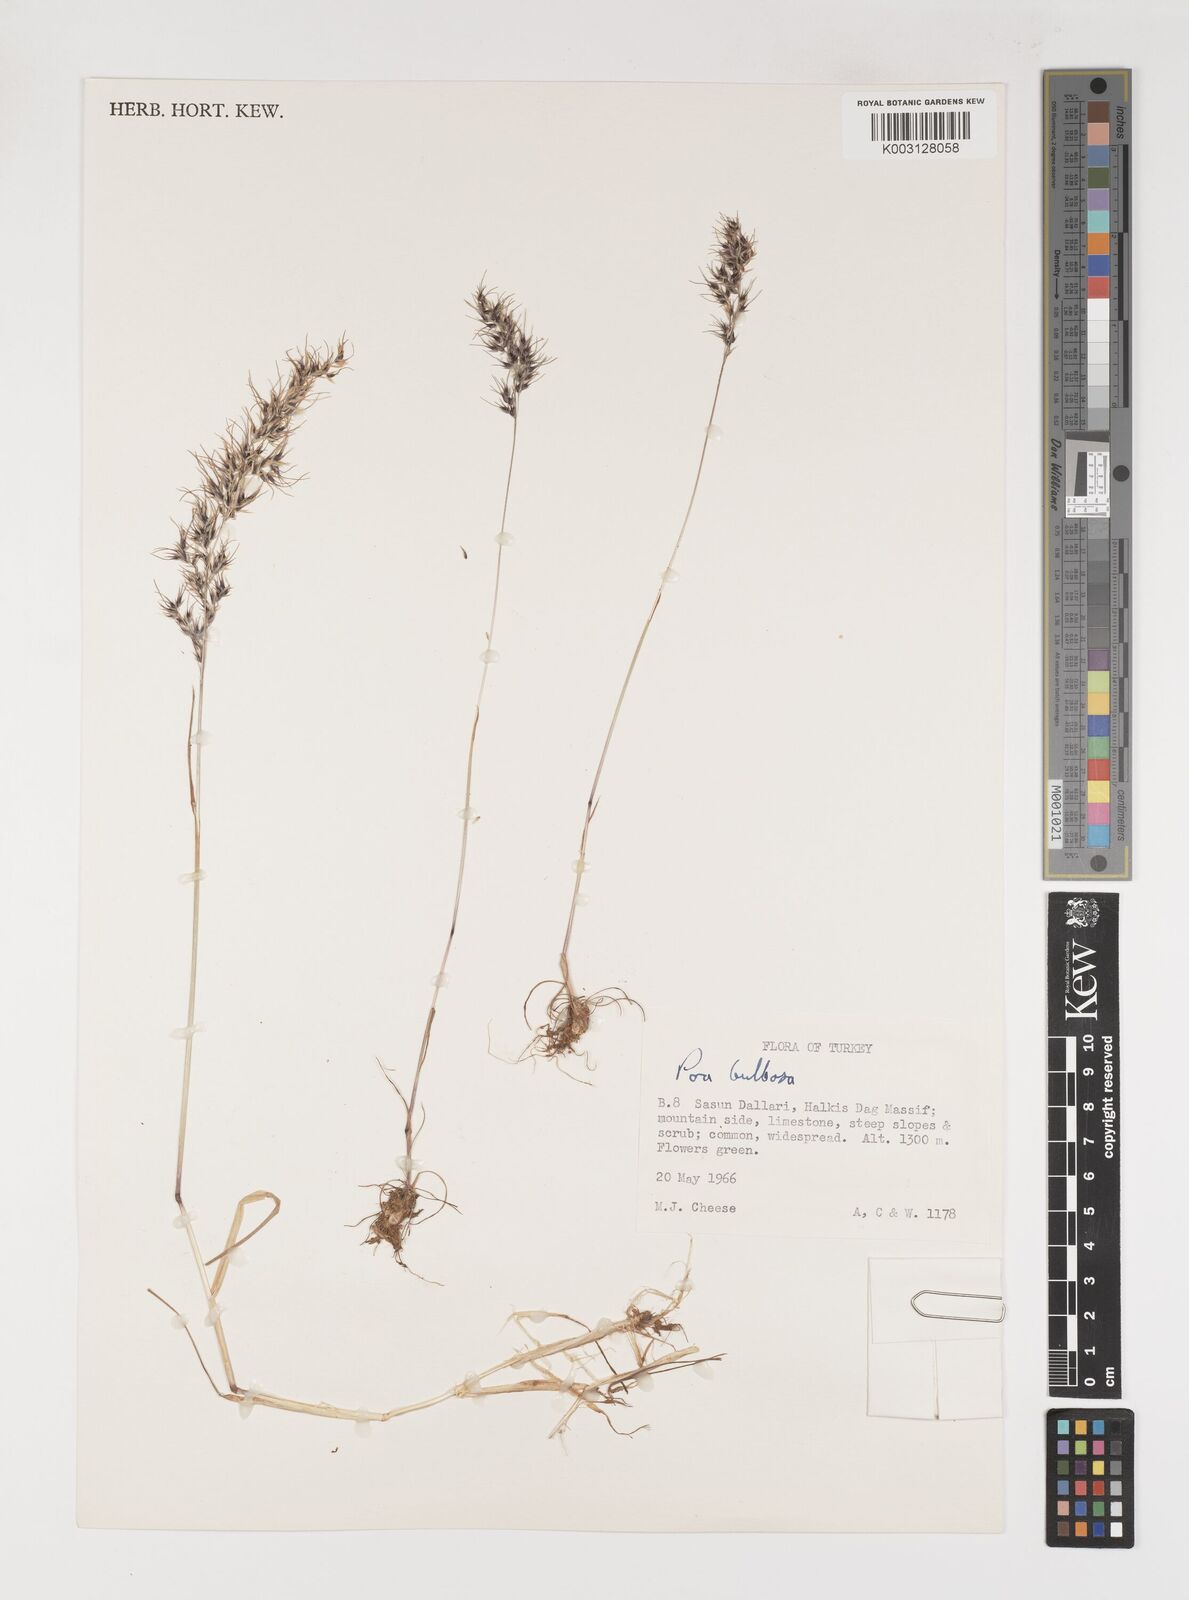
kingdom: Plantae
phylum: Tracheophyta
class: Liliopsida
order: Poales
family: Poaceae
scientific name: Poaceae
